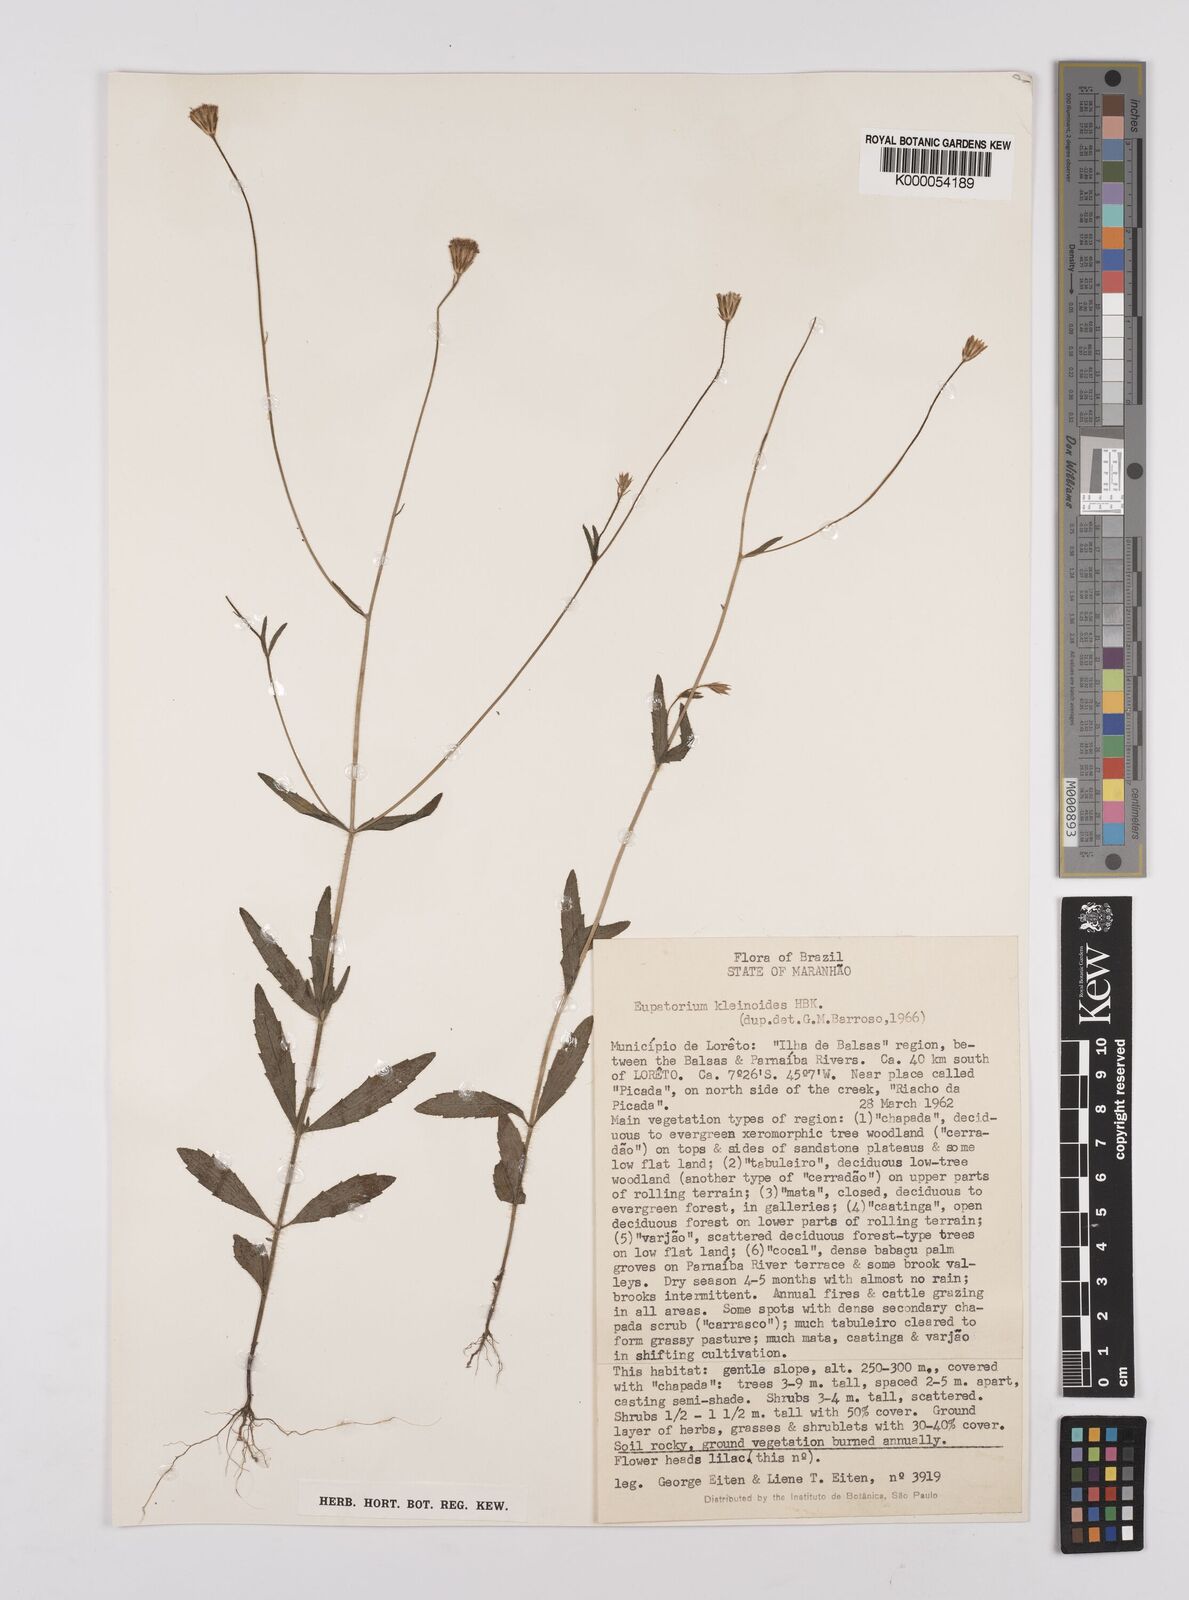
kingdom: Plantae
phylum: Tracheophyta
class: Magnoliopsida
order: Asterales
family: Asteraceae
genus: Praxelis
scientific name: Praxelis kleinioides
